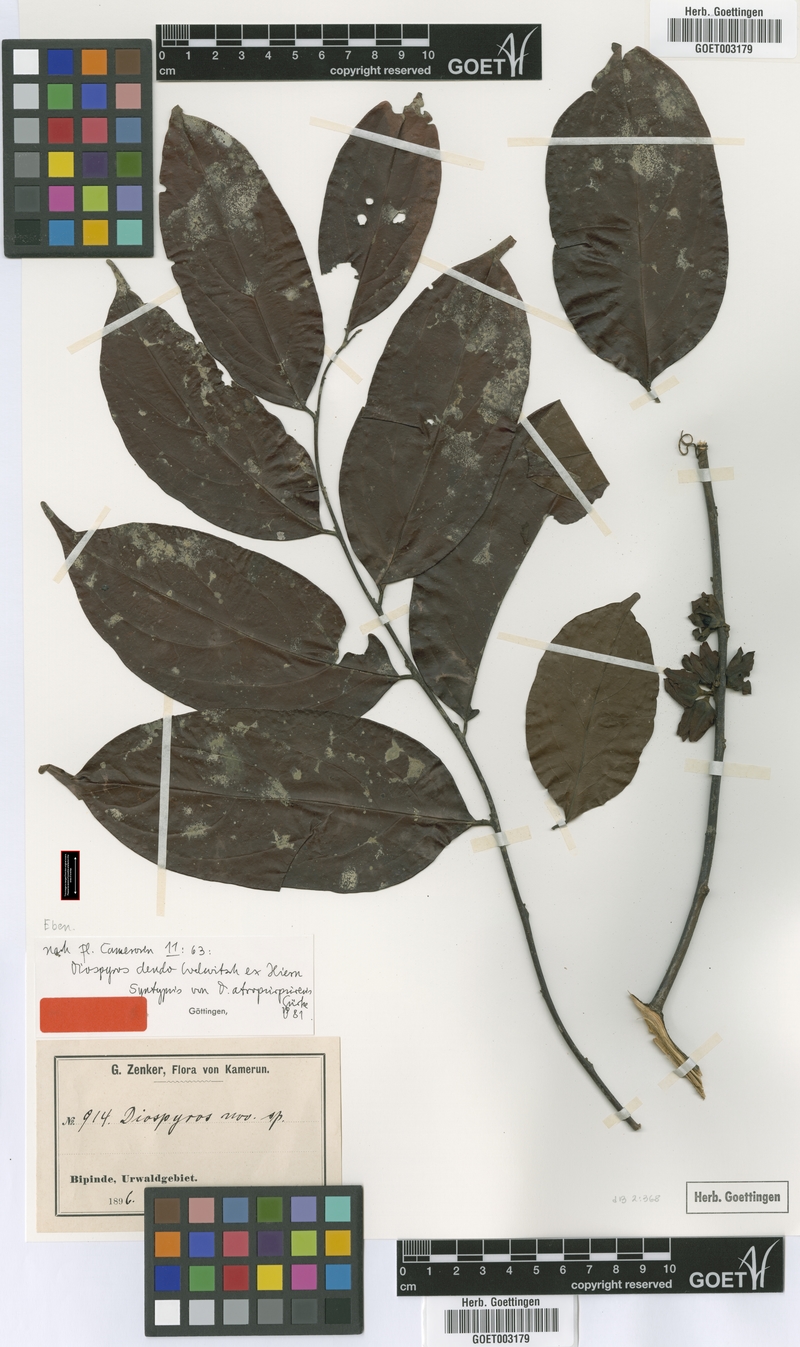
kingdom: Plantae
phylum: Tracheophyta
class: Magnoliopsida
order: Ericales
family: Ebenaceae
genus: Diospyros
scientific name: Diospyros dendo
